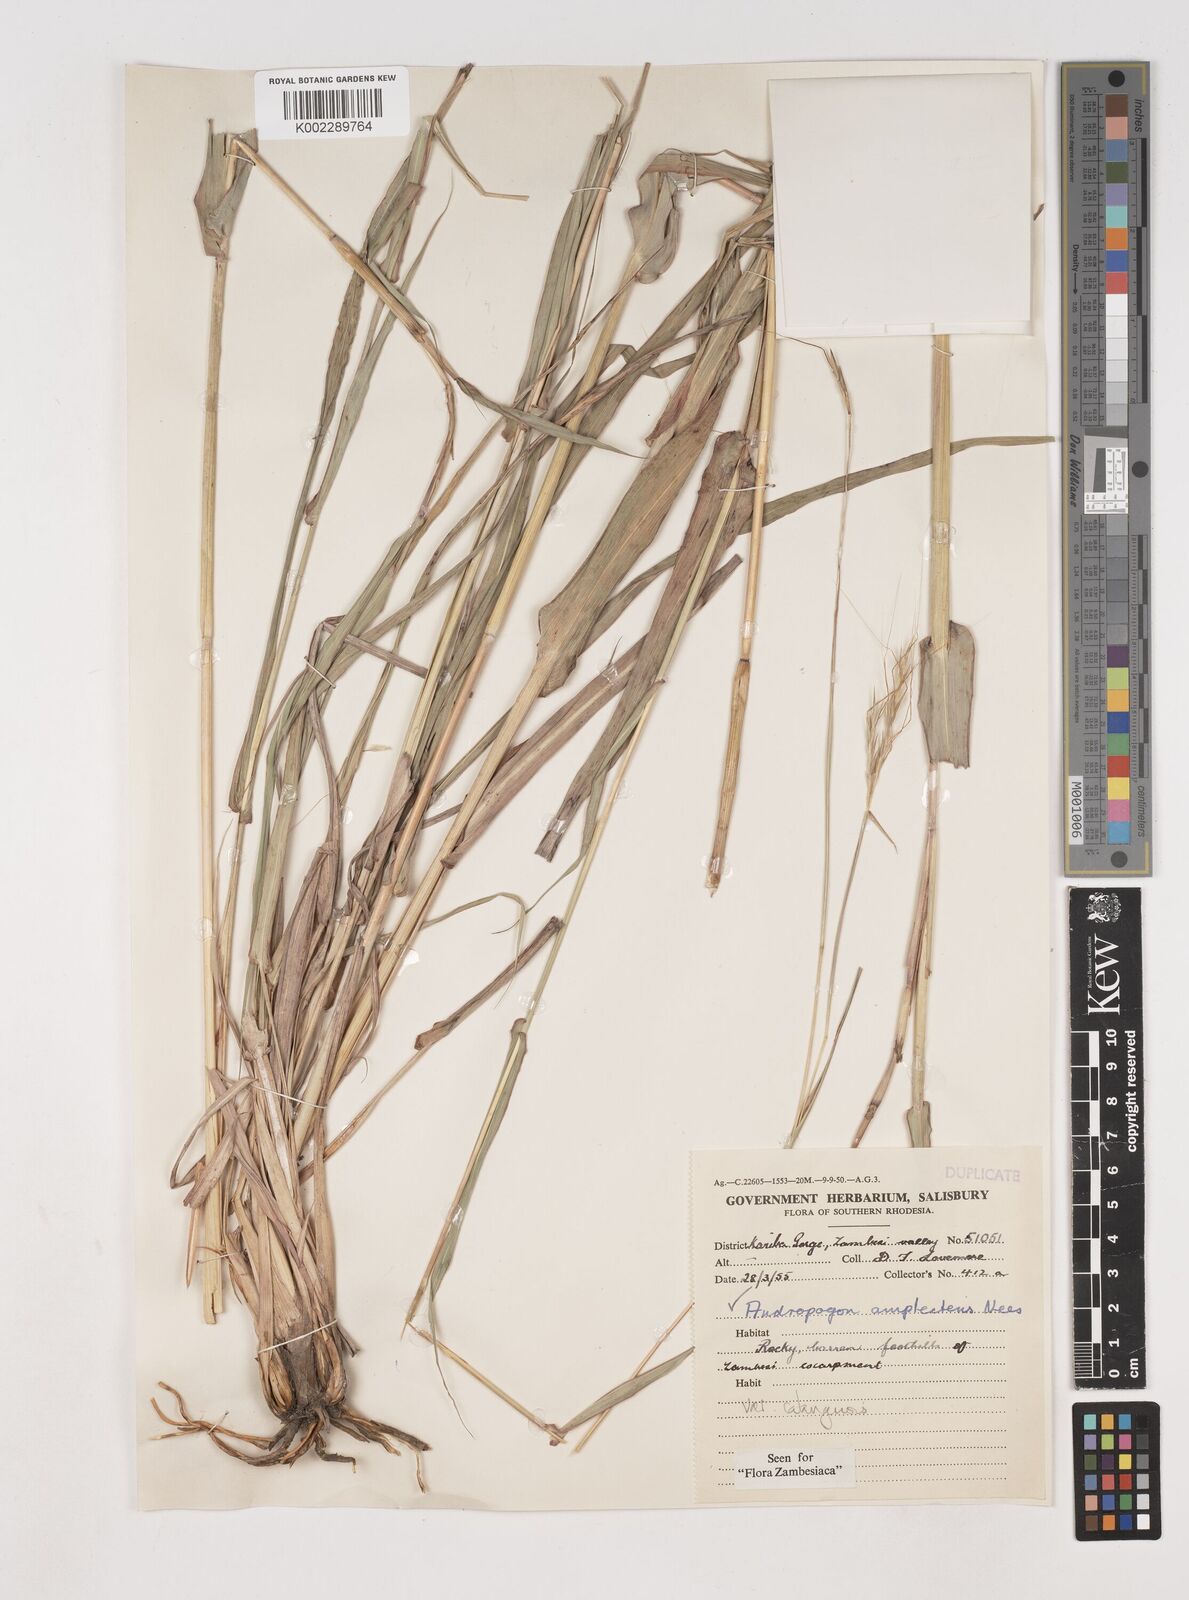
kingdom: Plantae
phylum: Tracheophyta
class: Liliopsida
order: Poales
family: Poaceae
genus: Diheteropogon
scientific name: Diheteropogon amplectens
